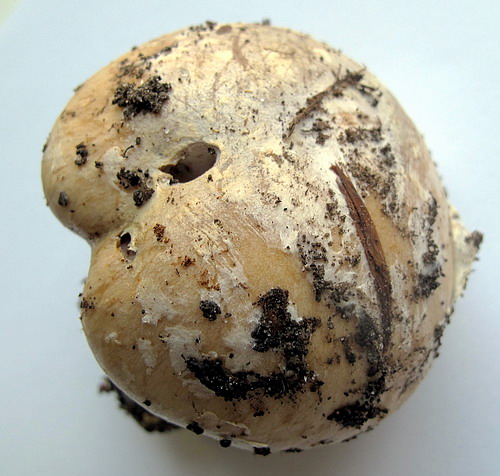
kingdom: Fungi
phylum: Basidiomycota
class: Agaricomycetes
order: Agaricales
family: Cortinariaceae
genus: Cortinarius
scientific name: Cortinarius foetens
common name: stribet slørhat
